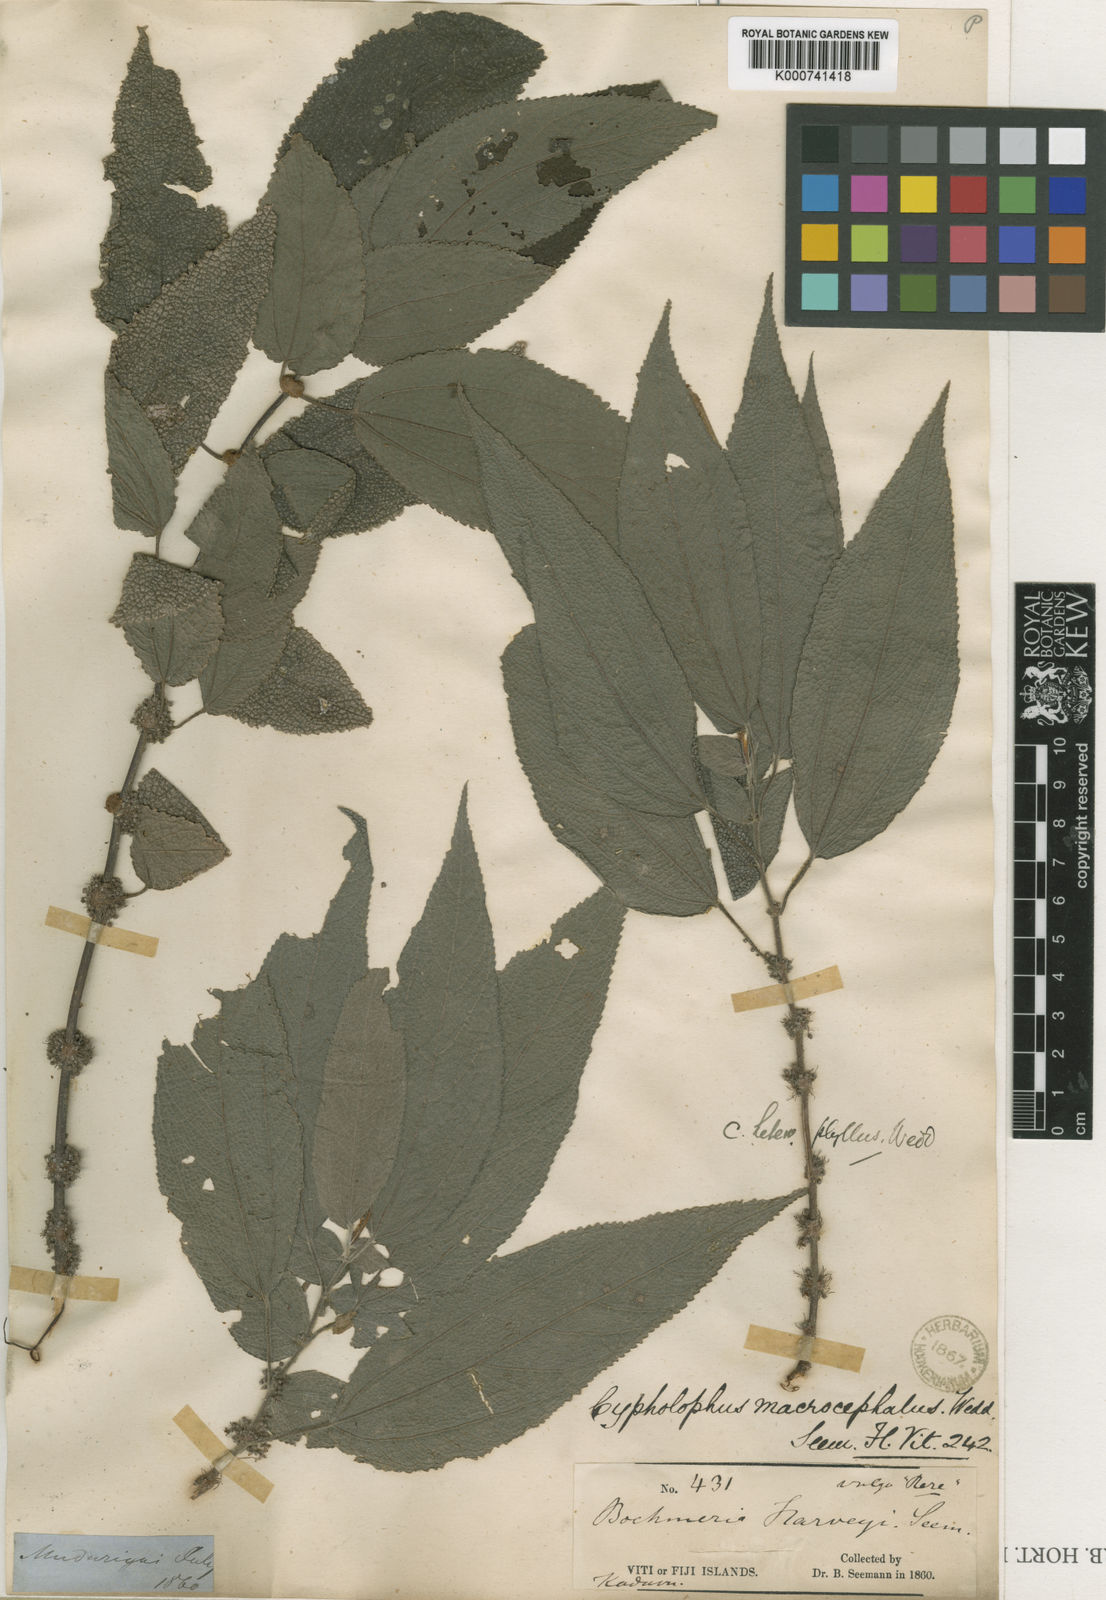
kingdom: Plantae
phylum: Tracheophyta
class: Magnoliopsida
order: Rosales
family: Urticaceae
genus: Cypholophus
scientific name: Cypholophus macrocephalus
